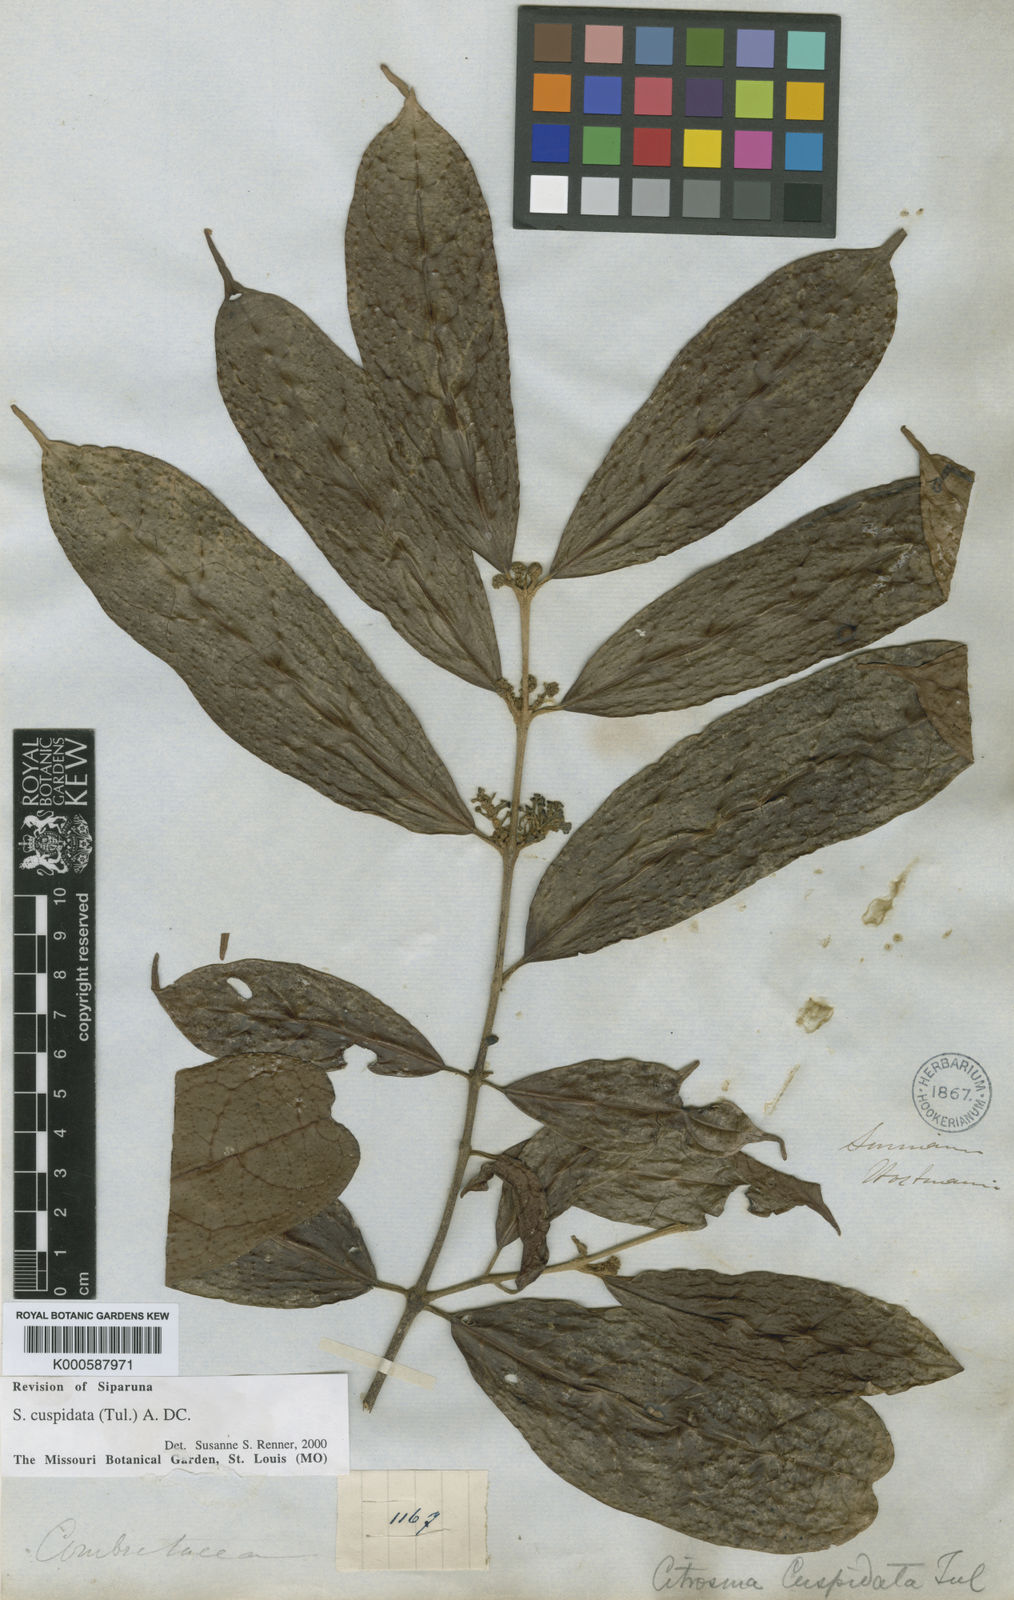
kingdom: Plantae
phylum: Tracheophyta
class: Magnoliopsida
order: Laurales
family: Siparunaceae
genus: Siparuna
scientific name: Siparuna cuspidata
